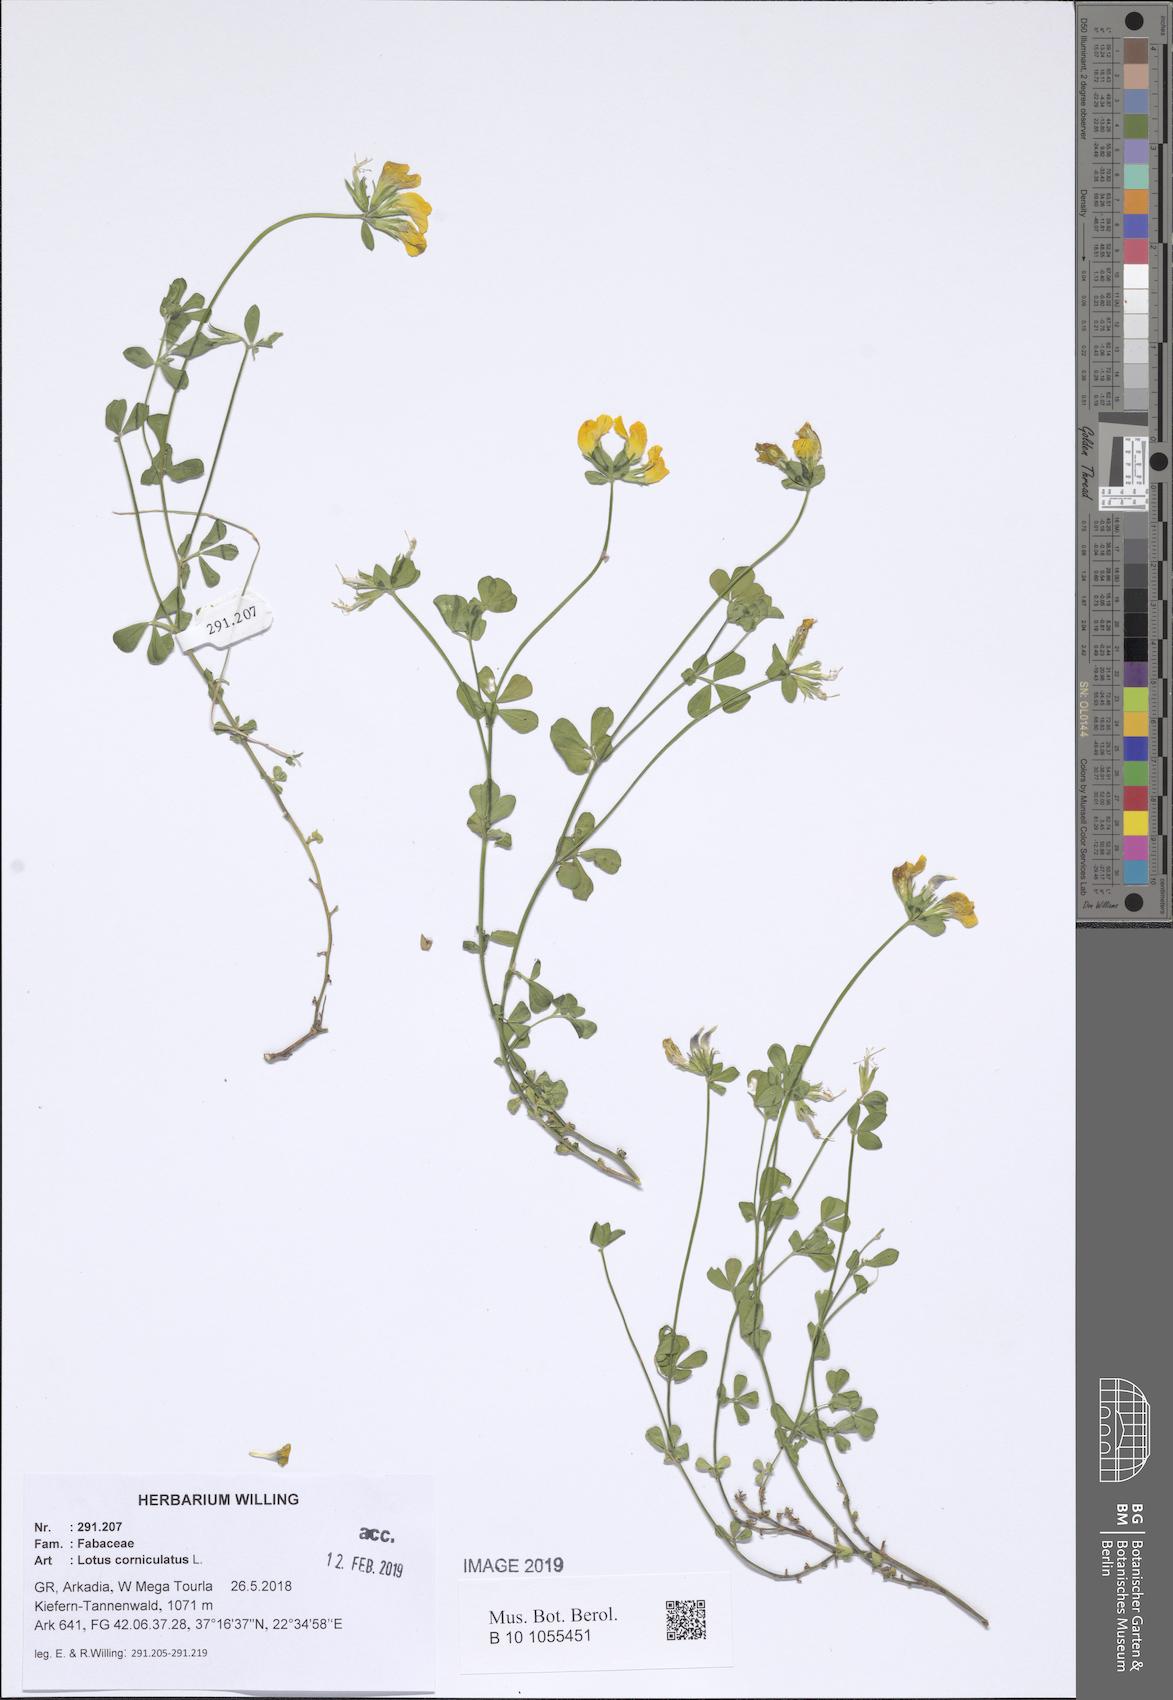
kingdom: Plantae
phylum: Tracheophyta
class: Magnoliopsida
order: Fabales
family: Fabaceae
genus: Lotus
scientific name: Lotus corniculatus
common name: Common bird's-foot-trefoil
